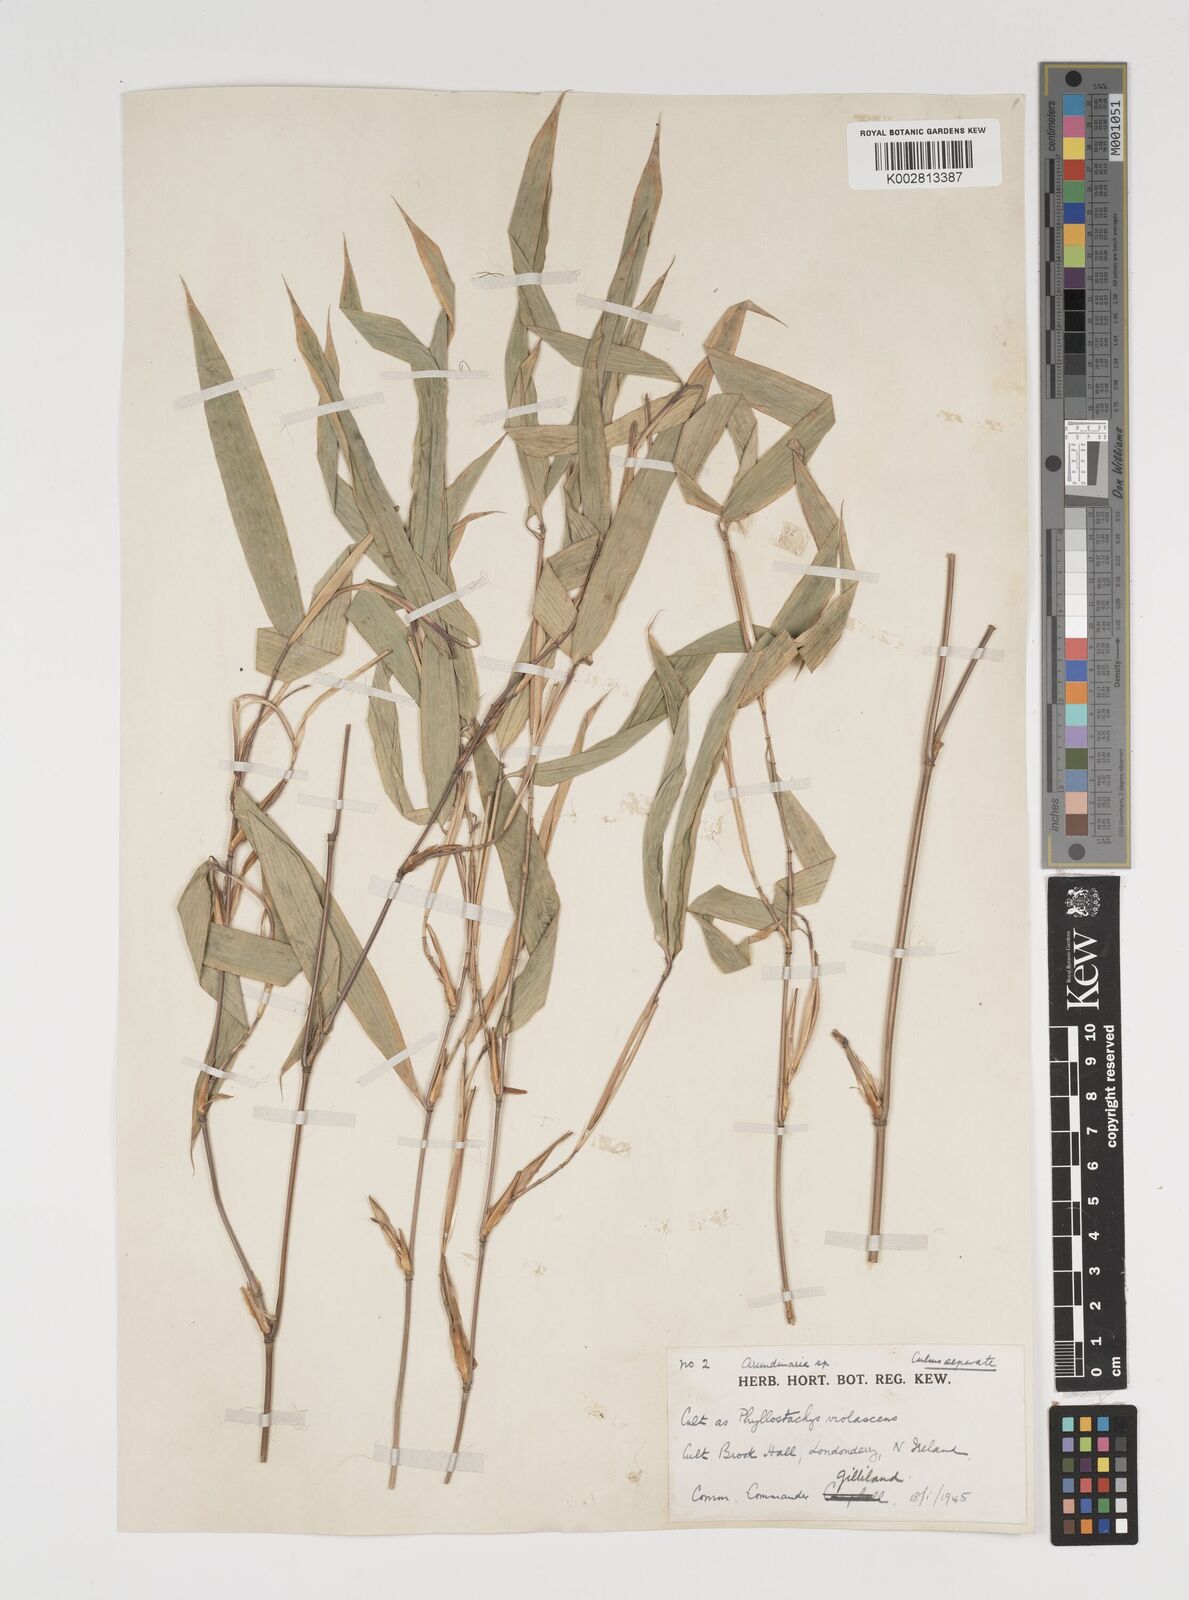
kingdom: Plantae
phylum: Tracheophyta
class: Liliopsida
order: Poales
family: Poaceae
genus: Thamnocalamus
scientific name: Thamnocalamus spathiflorus
